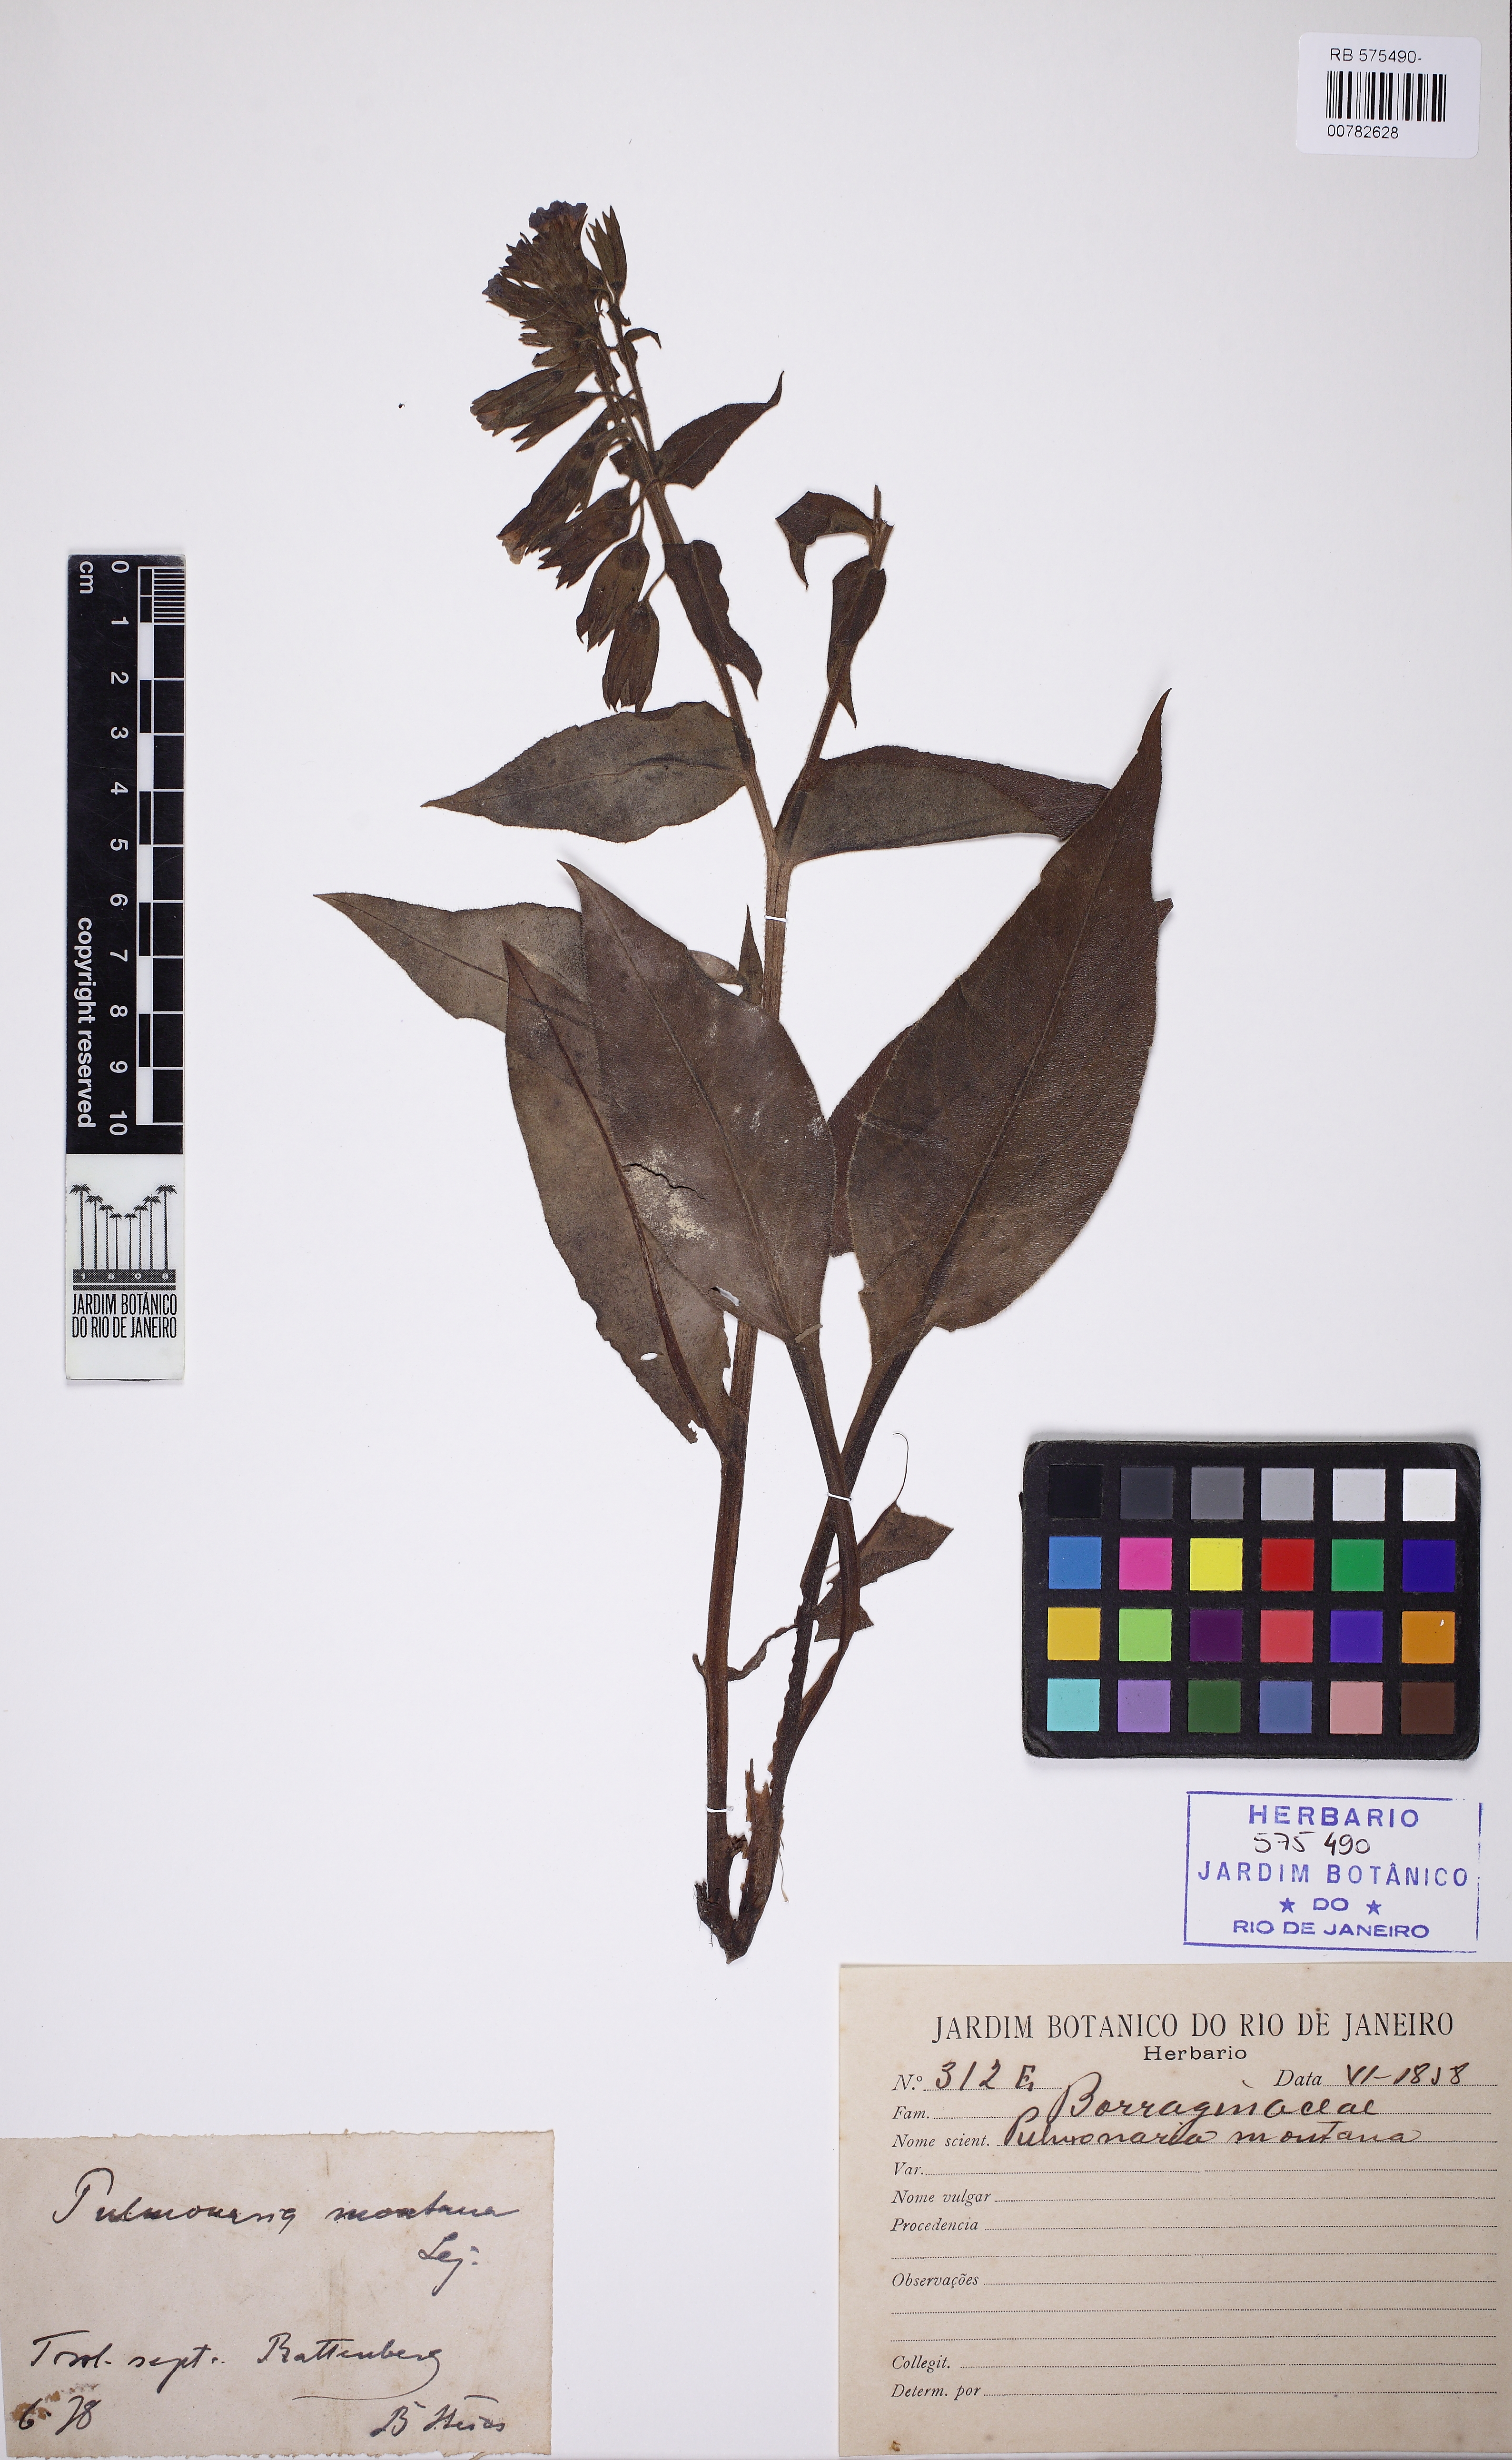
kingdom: Plantae
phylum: Tracheophyta
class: Magnoliopsida
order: Boraginales
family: Boraginaceae
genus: Pulmonaria
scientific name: Pulmonaria montana
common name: Mountain lungwort
